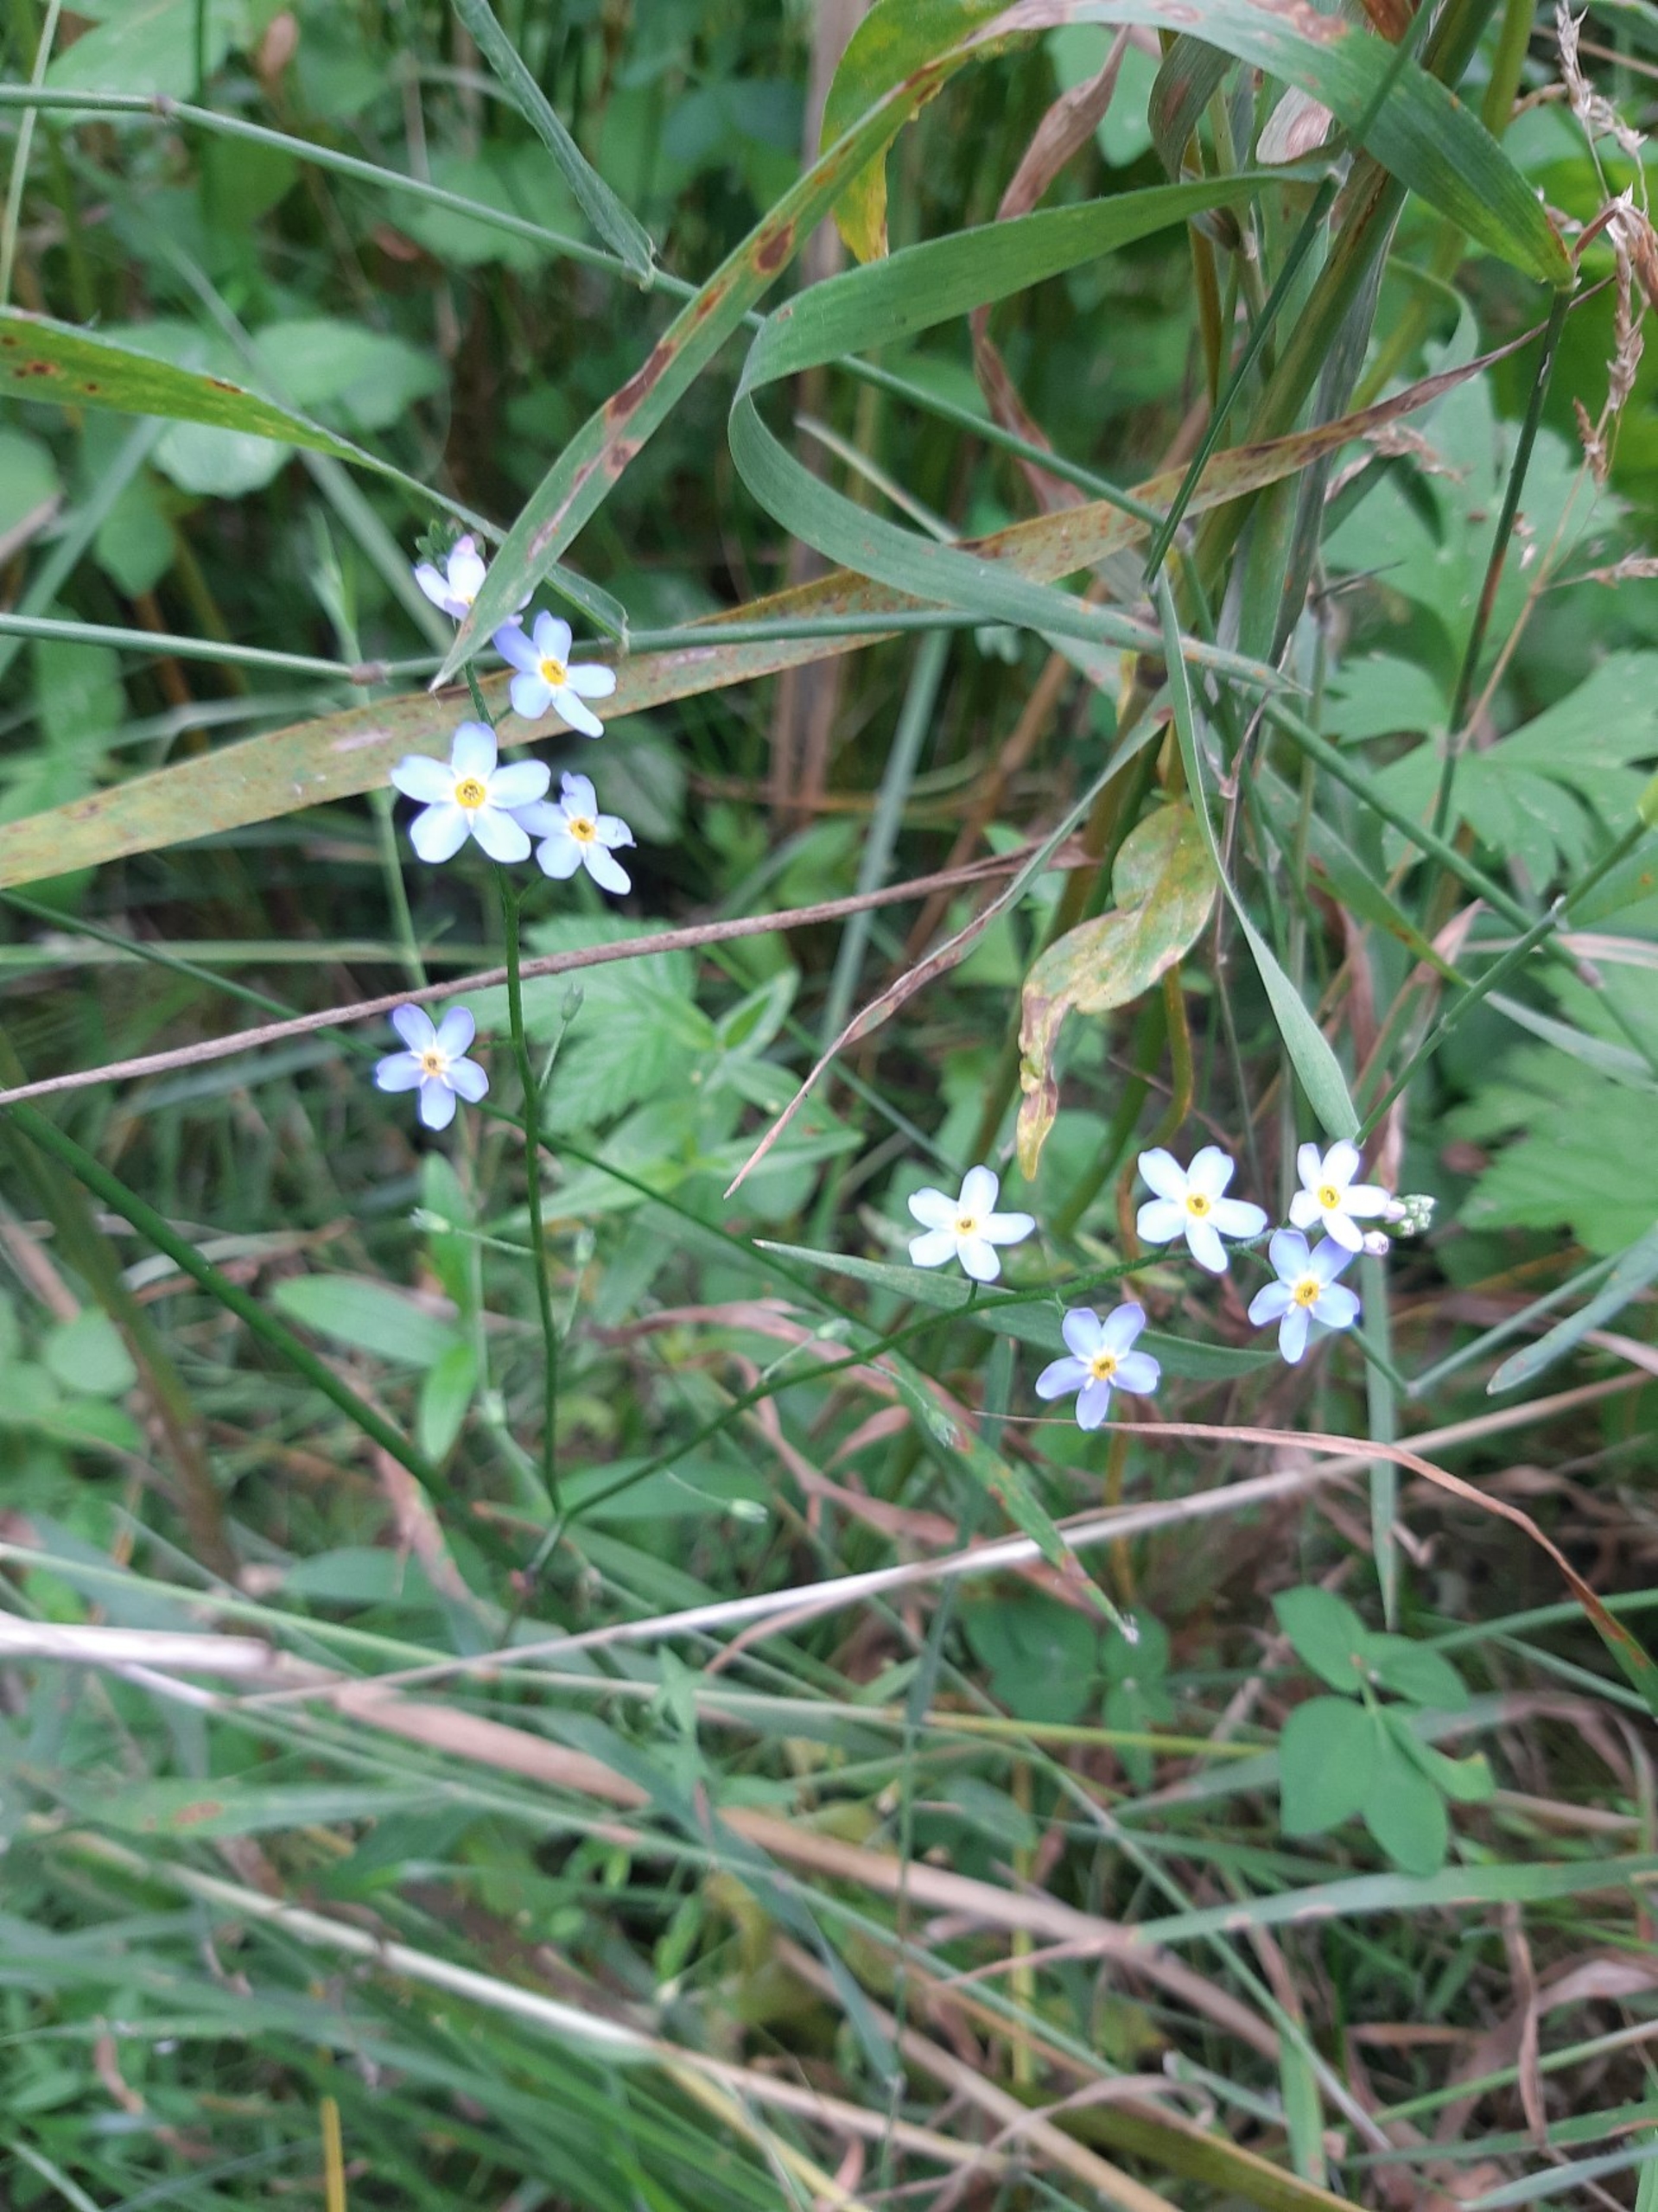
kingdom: Plantae
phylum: Tracheophyta
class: Magnoliopsida
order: Boraginales
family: Boraginaceae
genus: Myosotis
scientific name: Myosotis scorpioides
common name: Eng-forglemmigej
